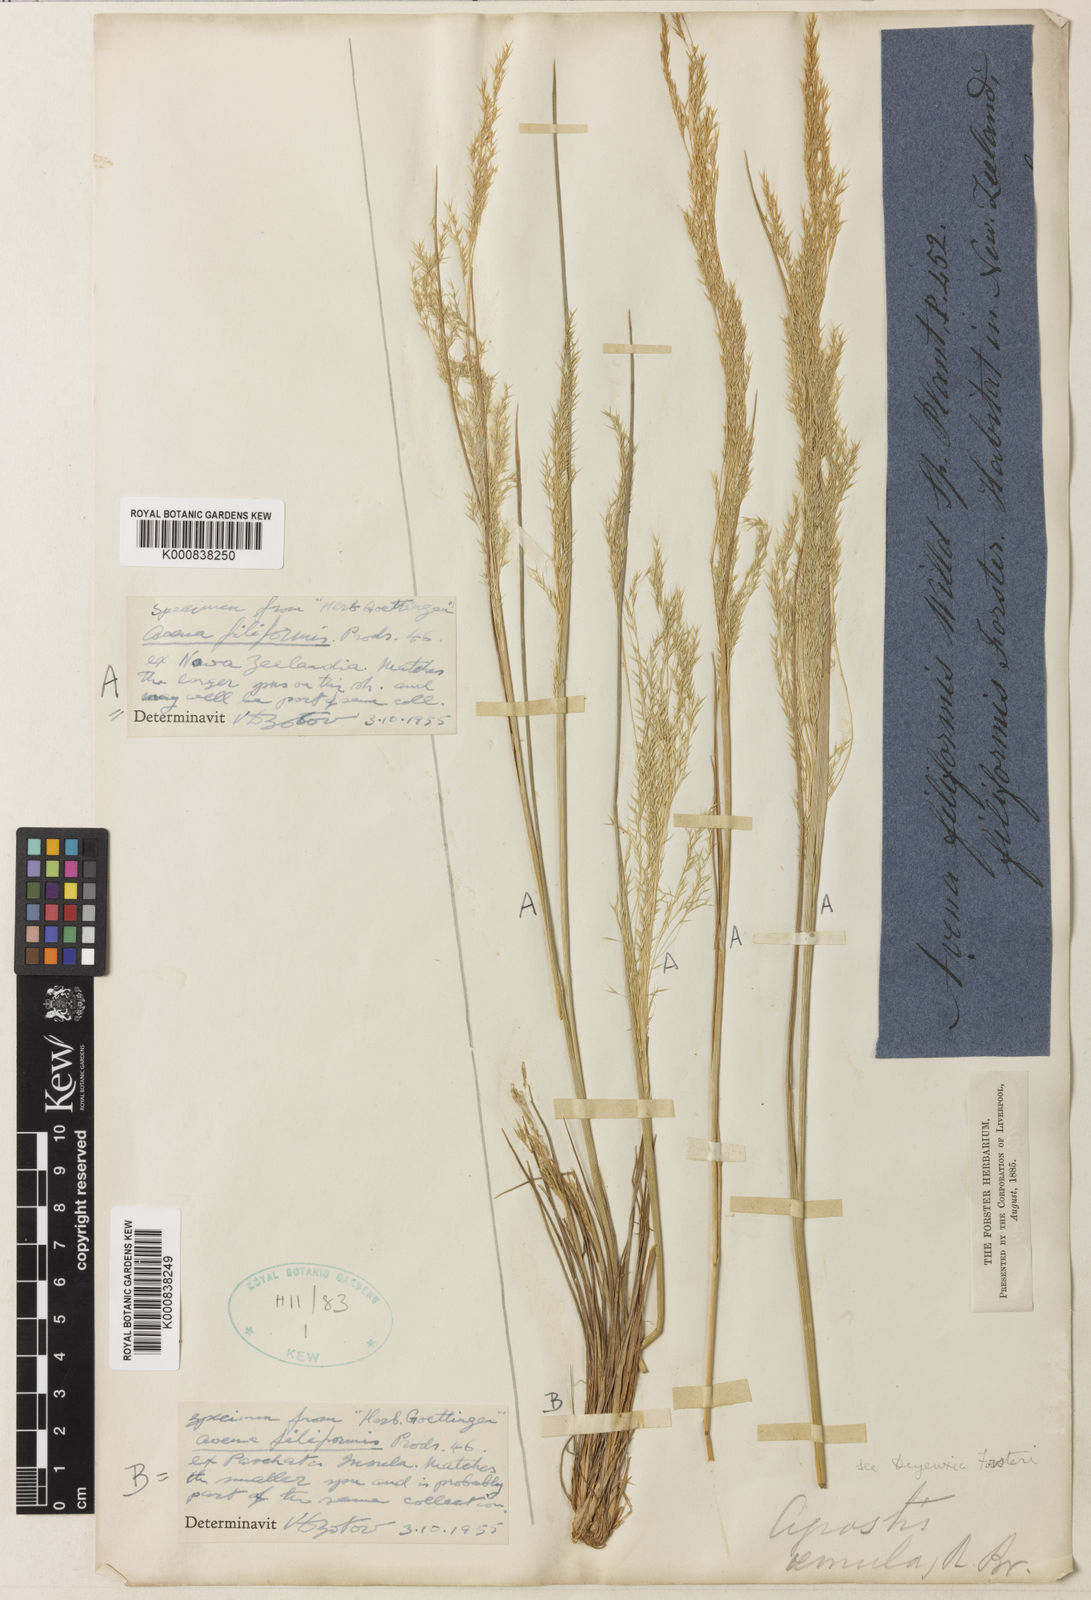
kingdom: Plantae
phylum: Tracheophyta
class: Liliopsida
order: Poales
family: Poaceae
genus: Lachnagrostis
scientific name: Lachnagrostis filiformis
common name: Bentgrass
